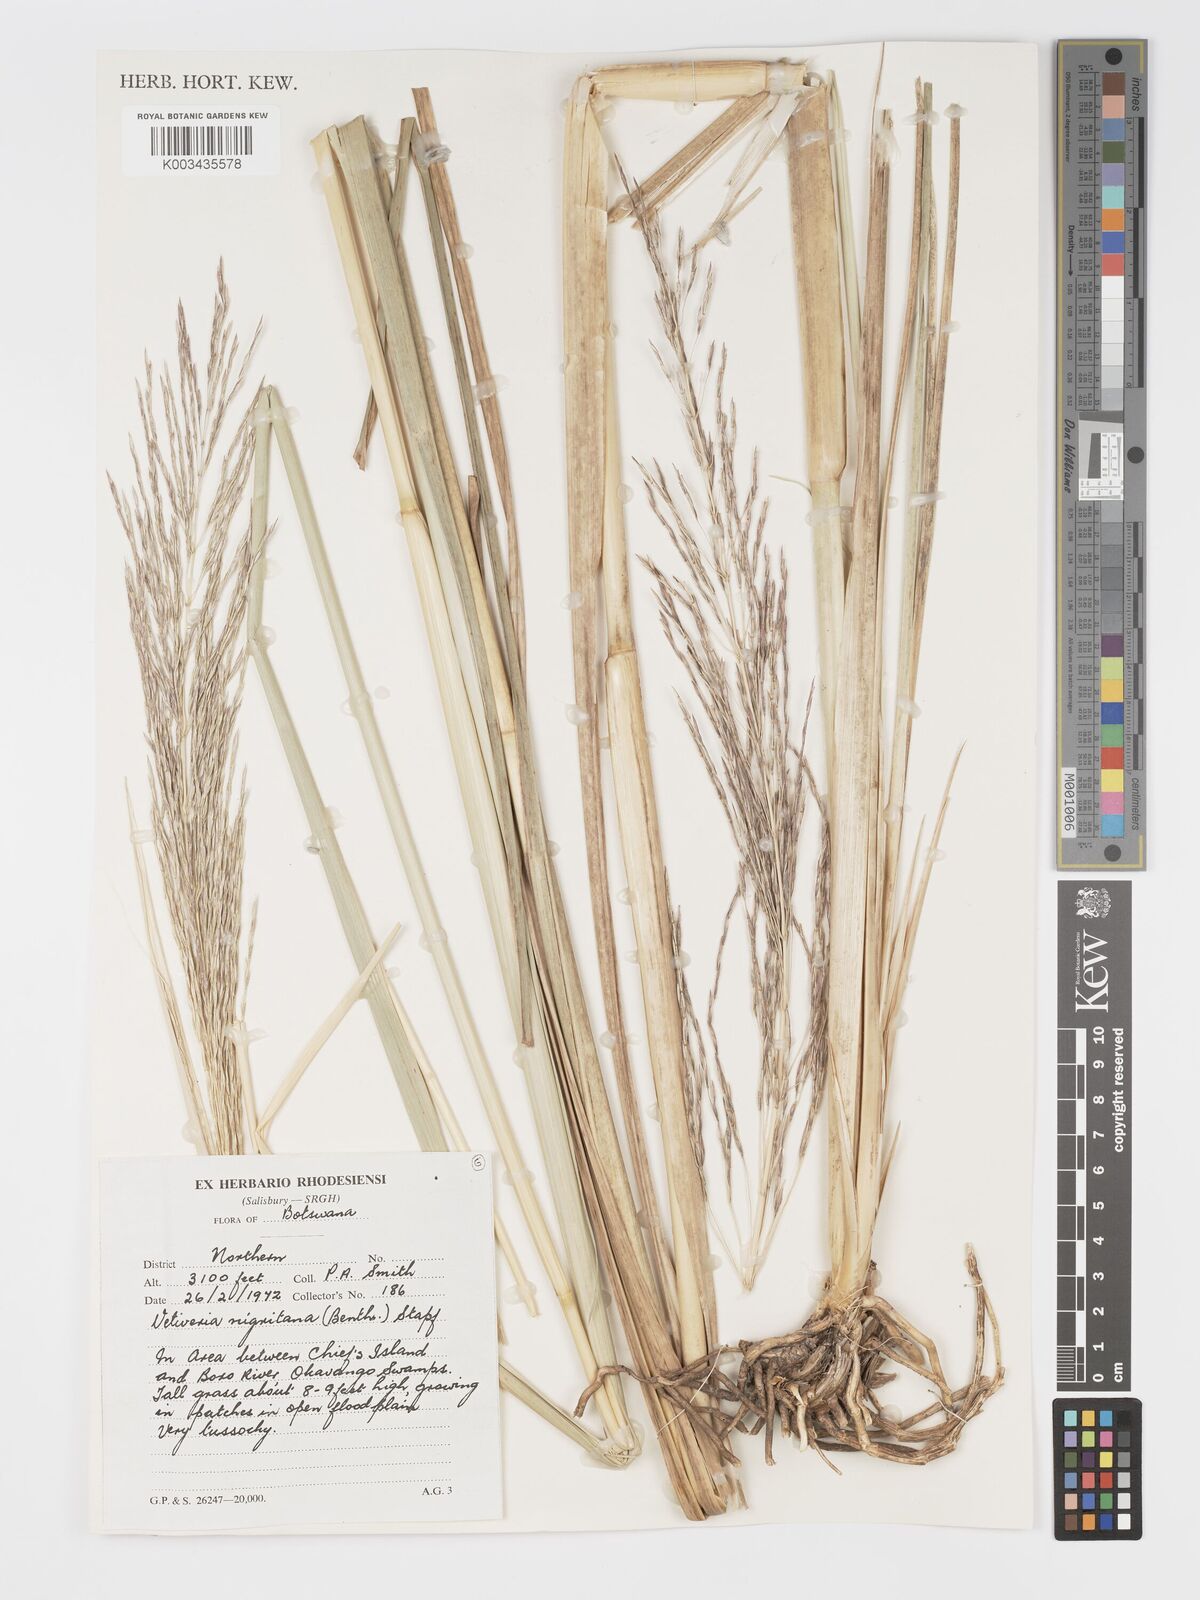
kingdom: Plantae
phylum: Tracheophyta
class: Liliopsida
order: Poales
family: Poaceae
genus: Chrysopogon
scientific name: Chrysopogon nigritanus
